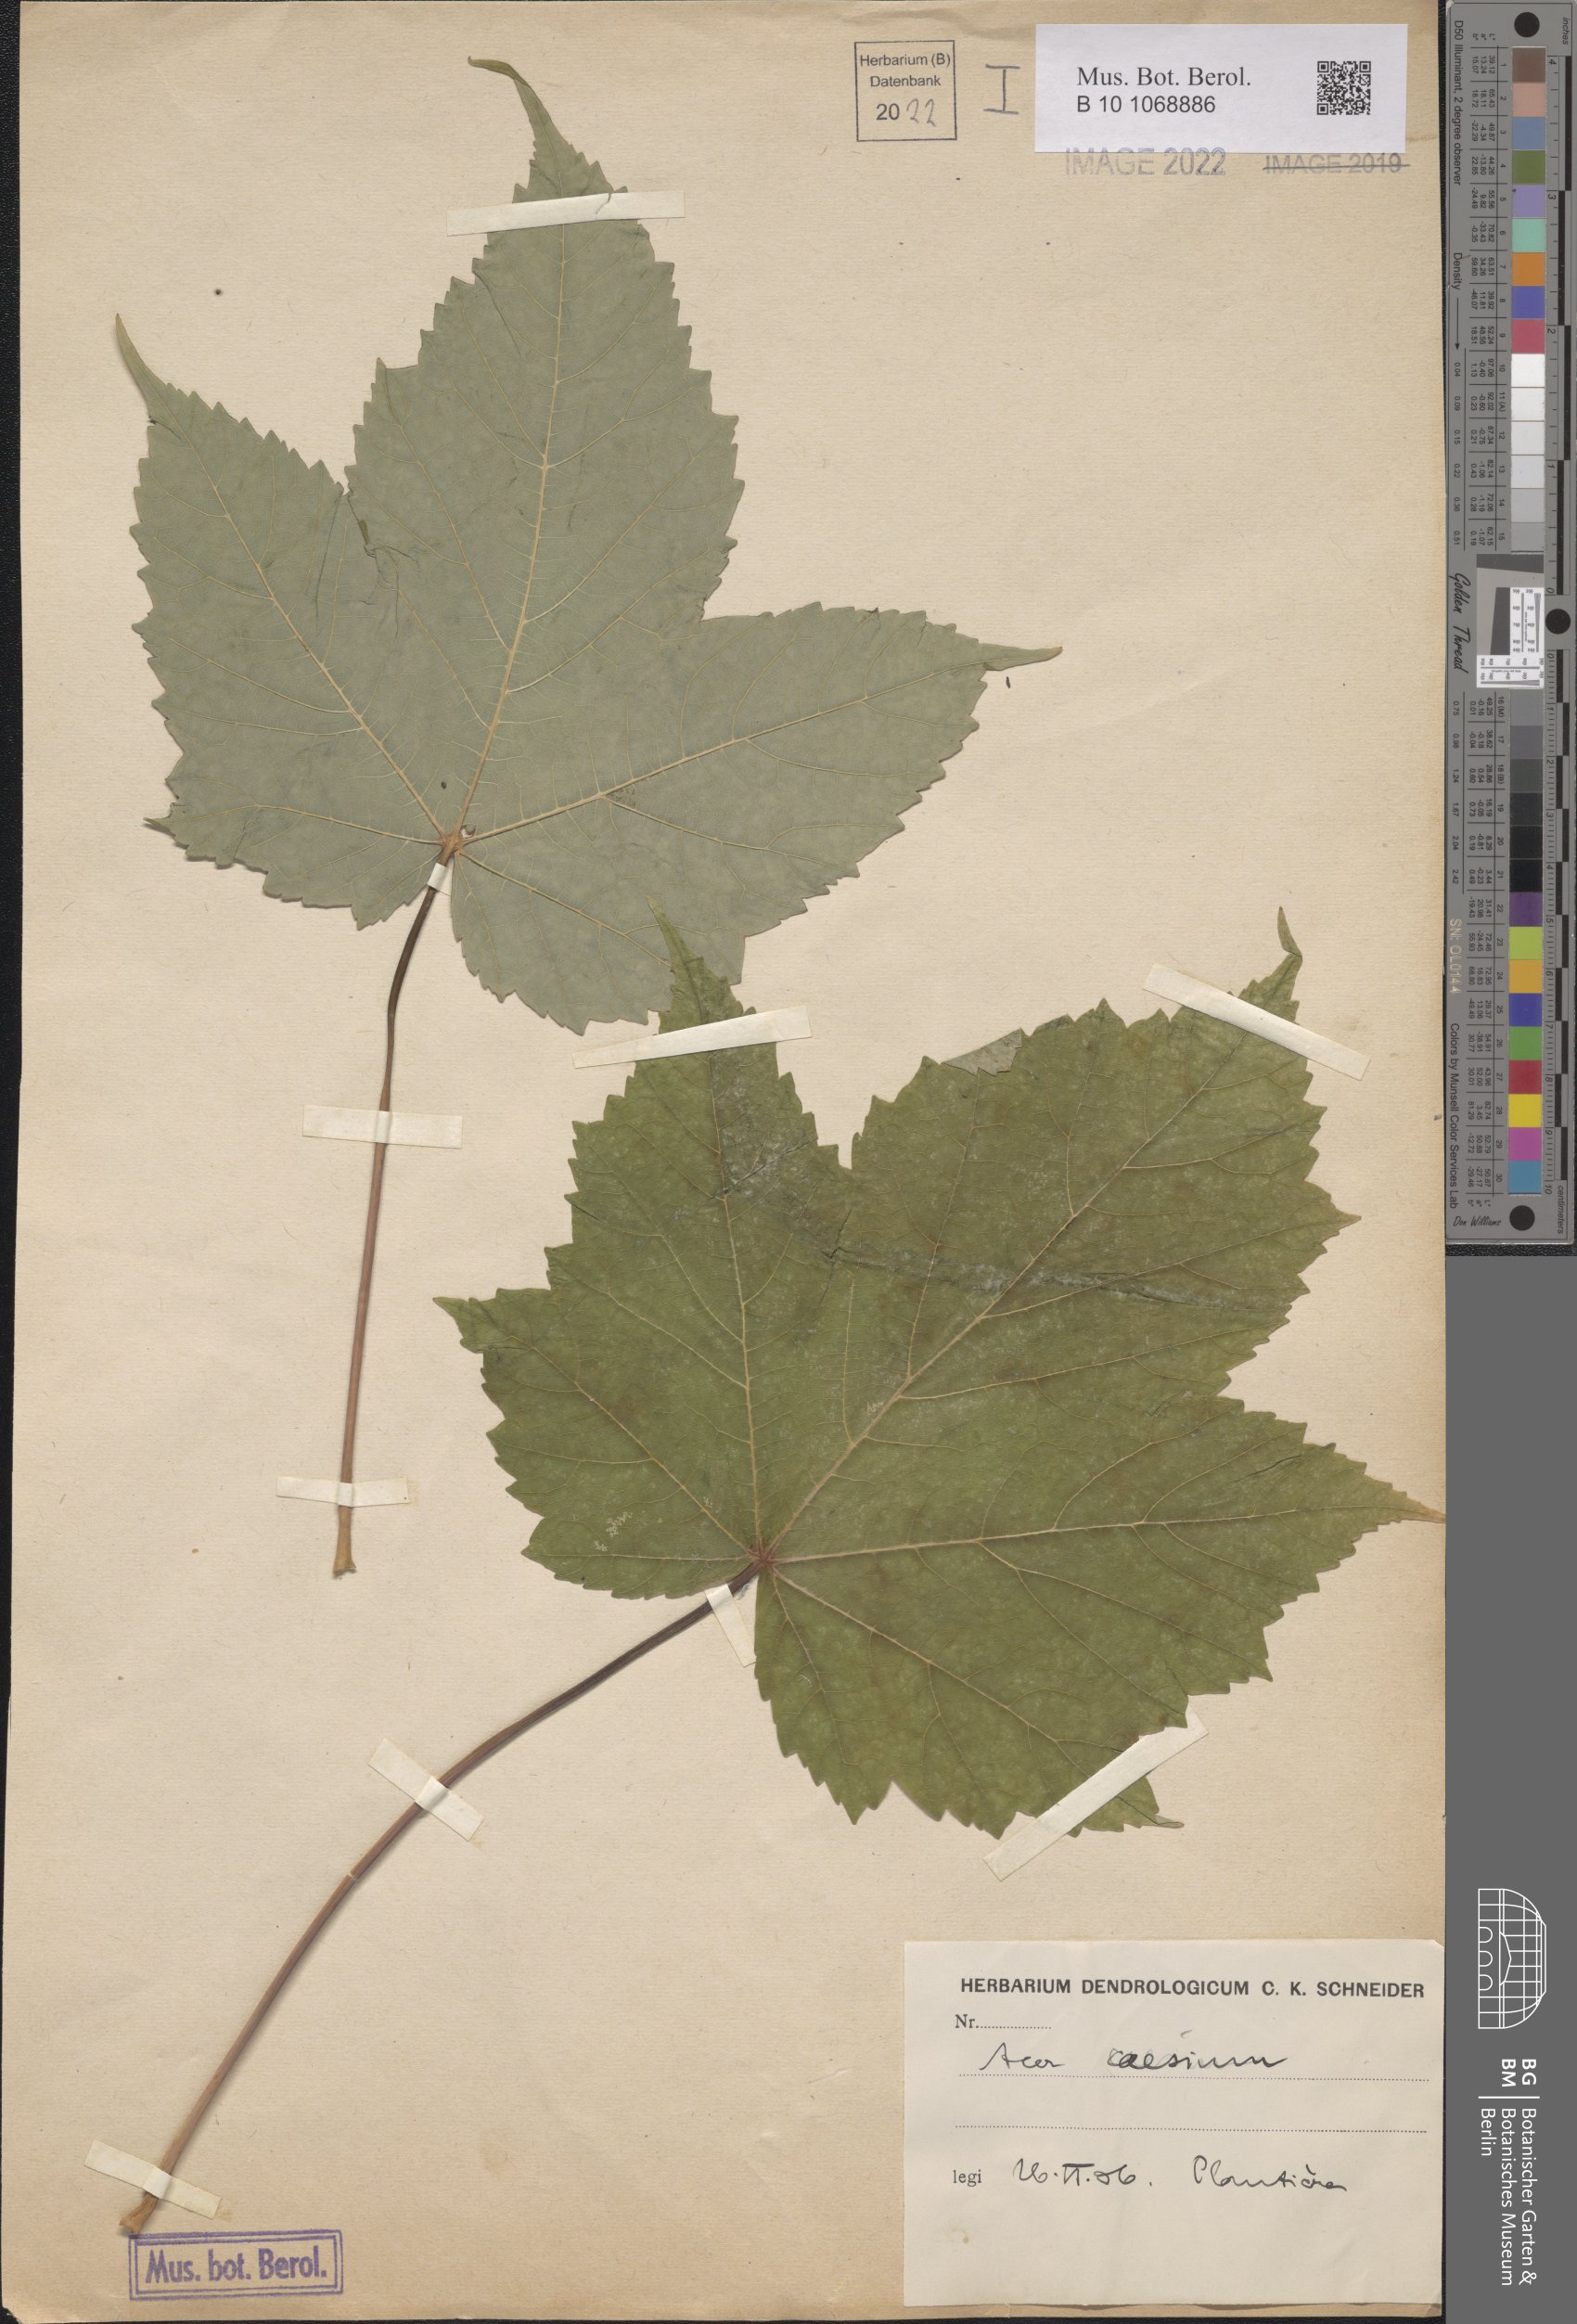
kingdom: Plantae
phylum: Tracheophyta
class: Magnoliopsida
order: Sapindales
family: Sapindaceae
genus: Acer
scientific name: Acer caesium
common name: Indian maple
